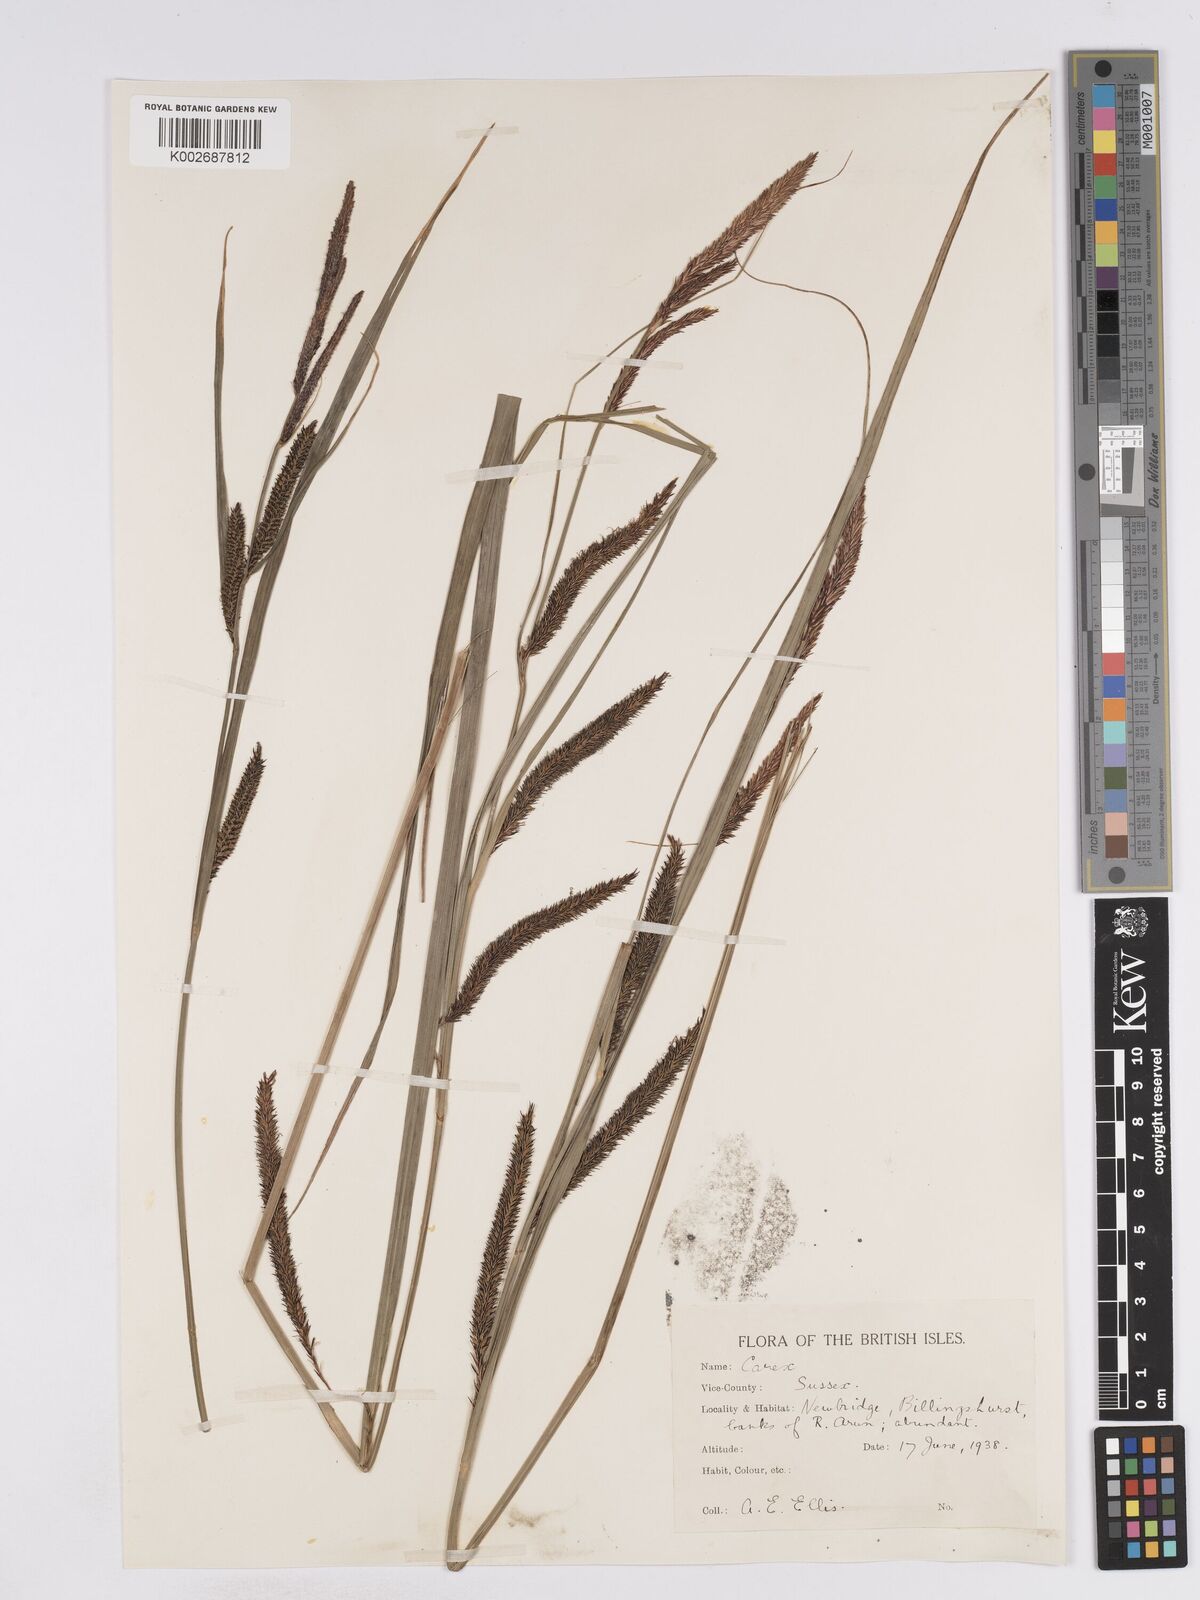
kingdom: Plantae
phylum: Tracheophyta
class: Liliopsida
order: Poales
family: Cyperaceae
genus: Carex
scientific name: Carex acuta
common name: Slender tufted-sedge
